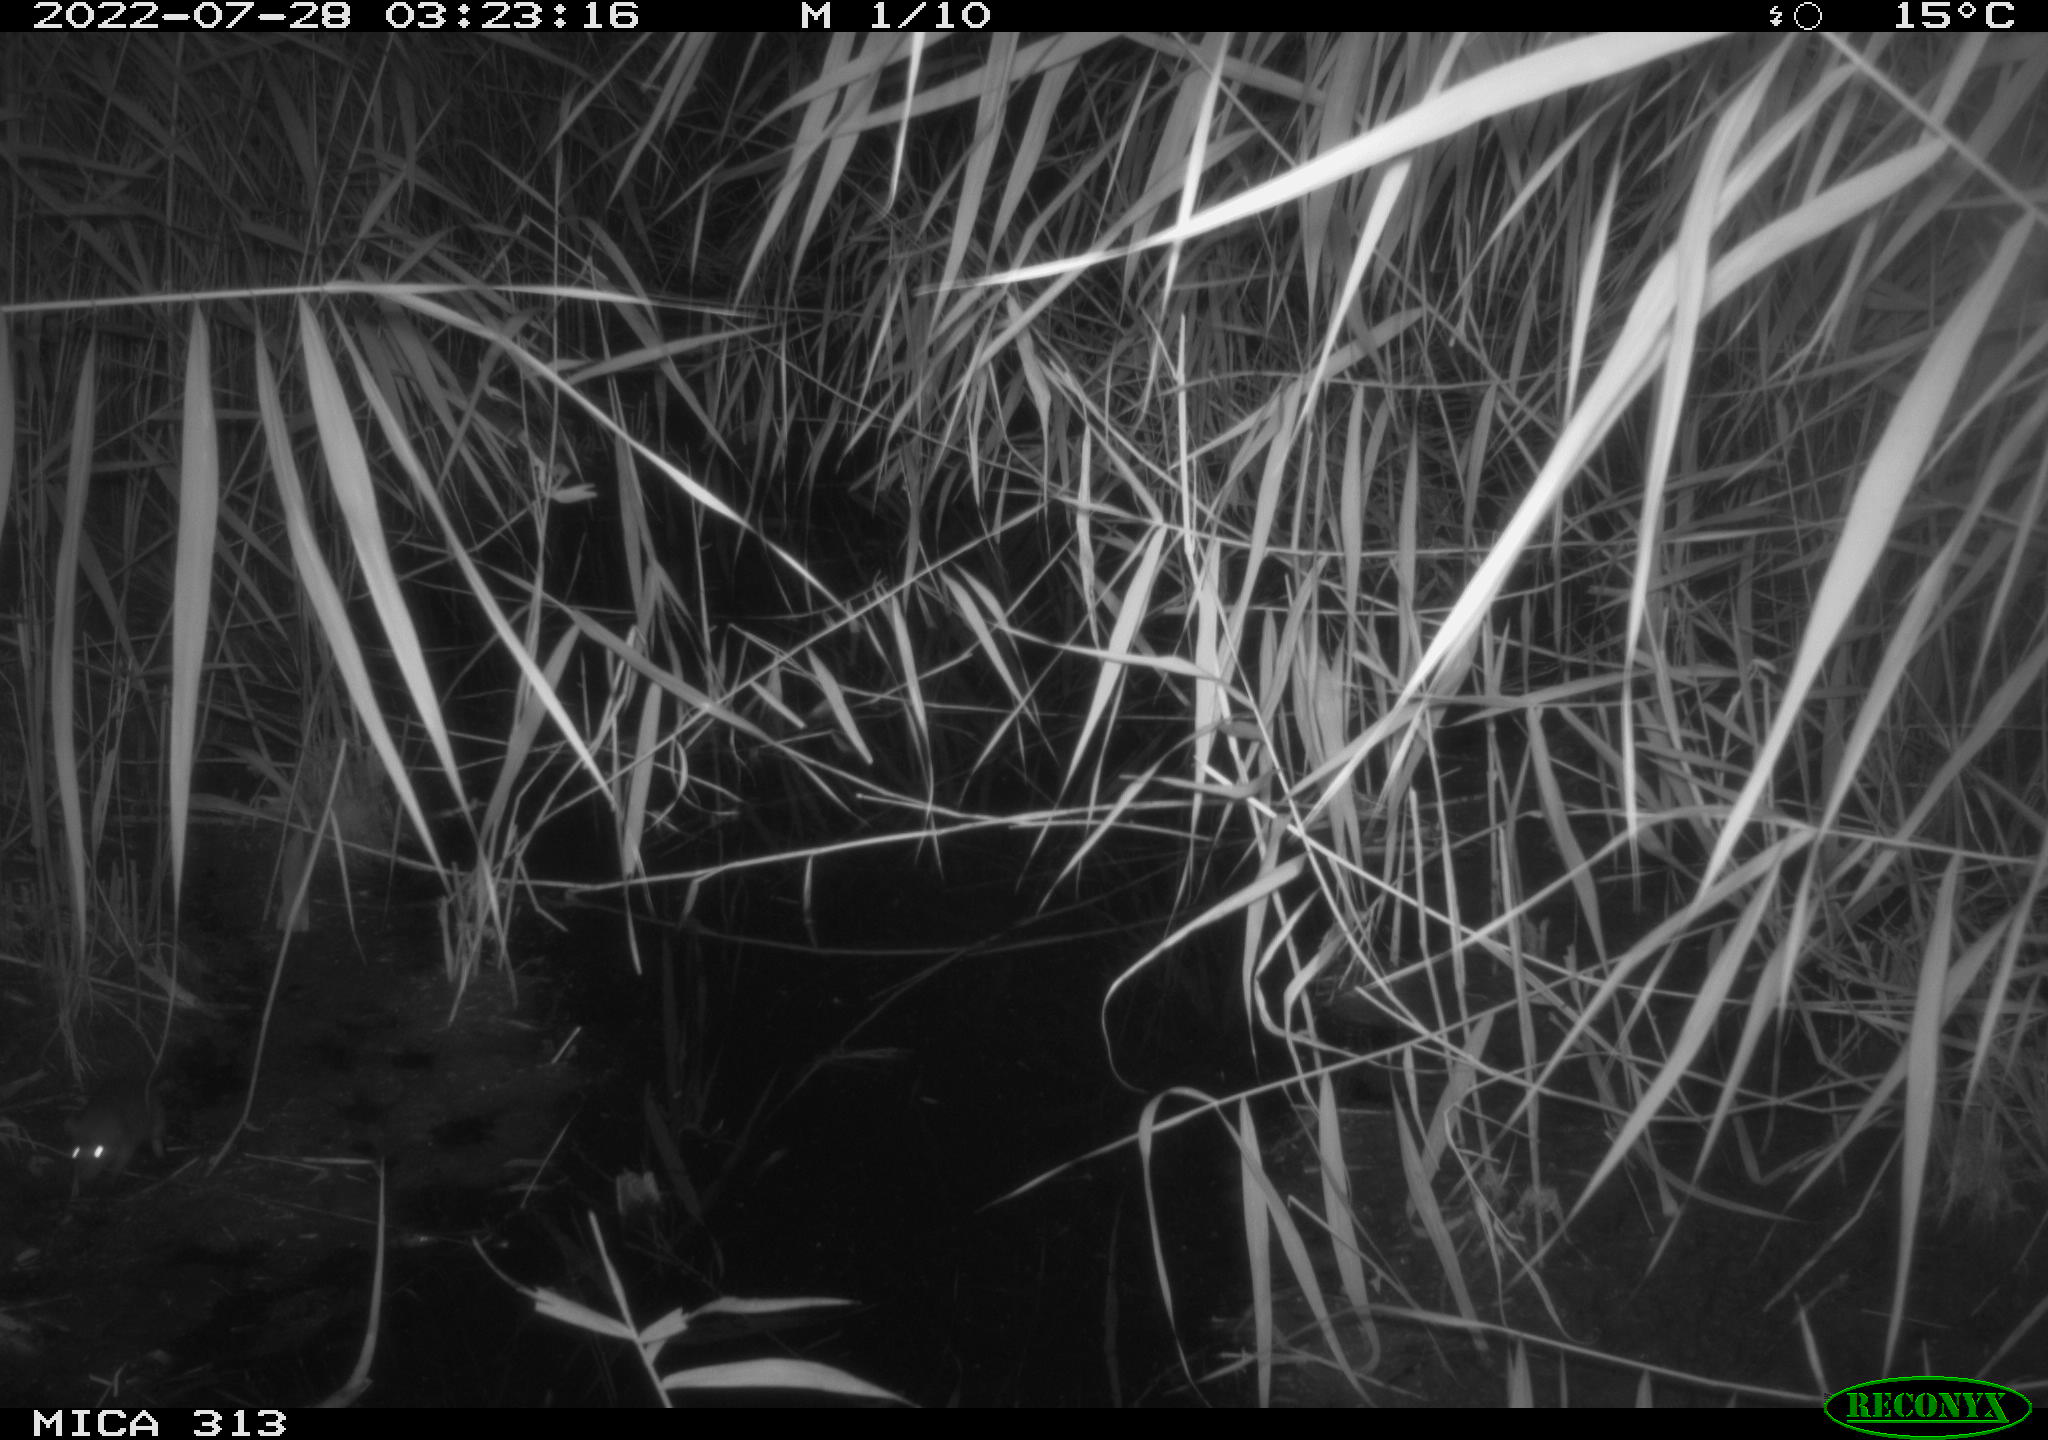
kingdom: Animalia
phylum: Chordata
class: Mammalia
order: Rodentia
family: Muridae
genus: Rattus
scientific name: Rattus norvegicus
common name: Brown rat
